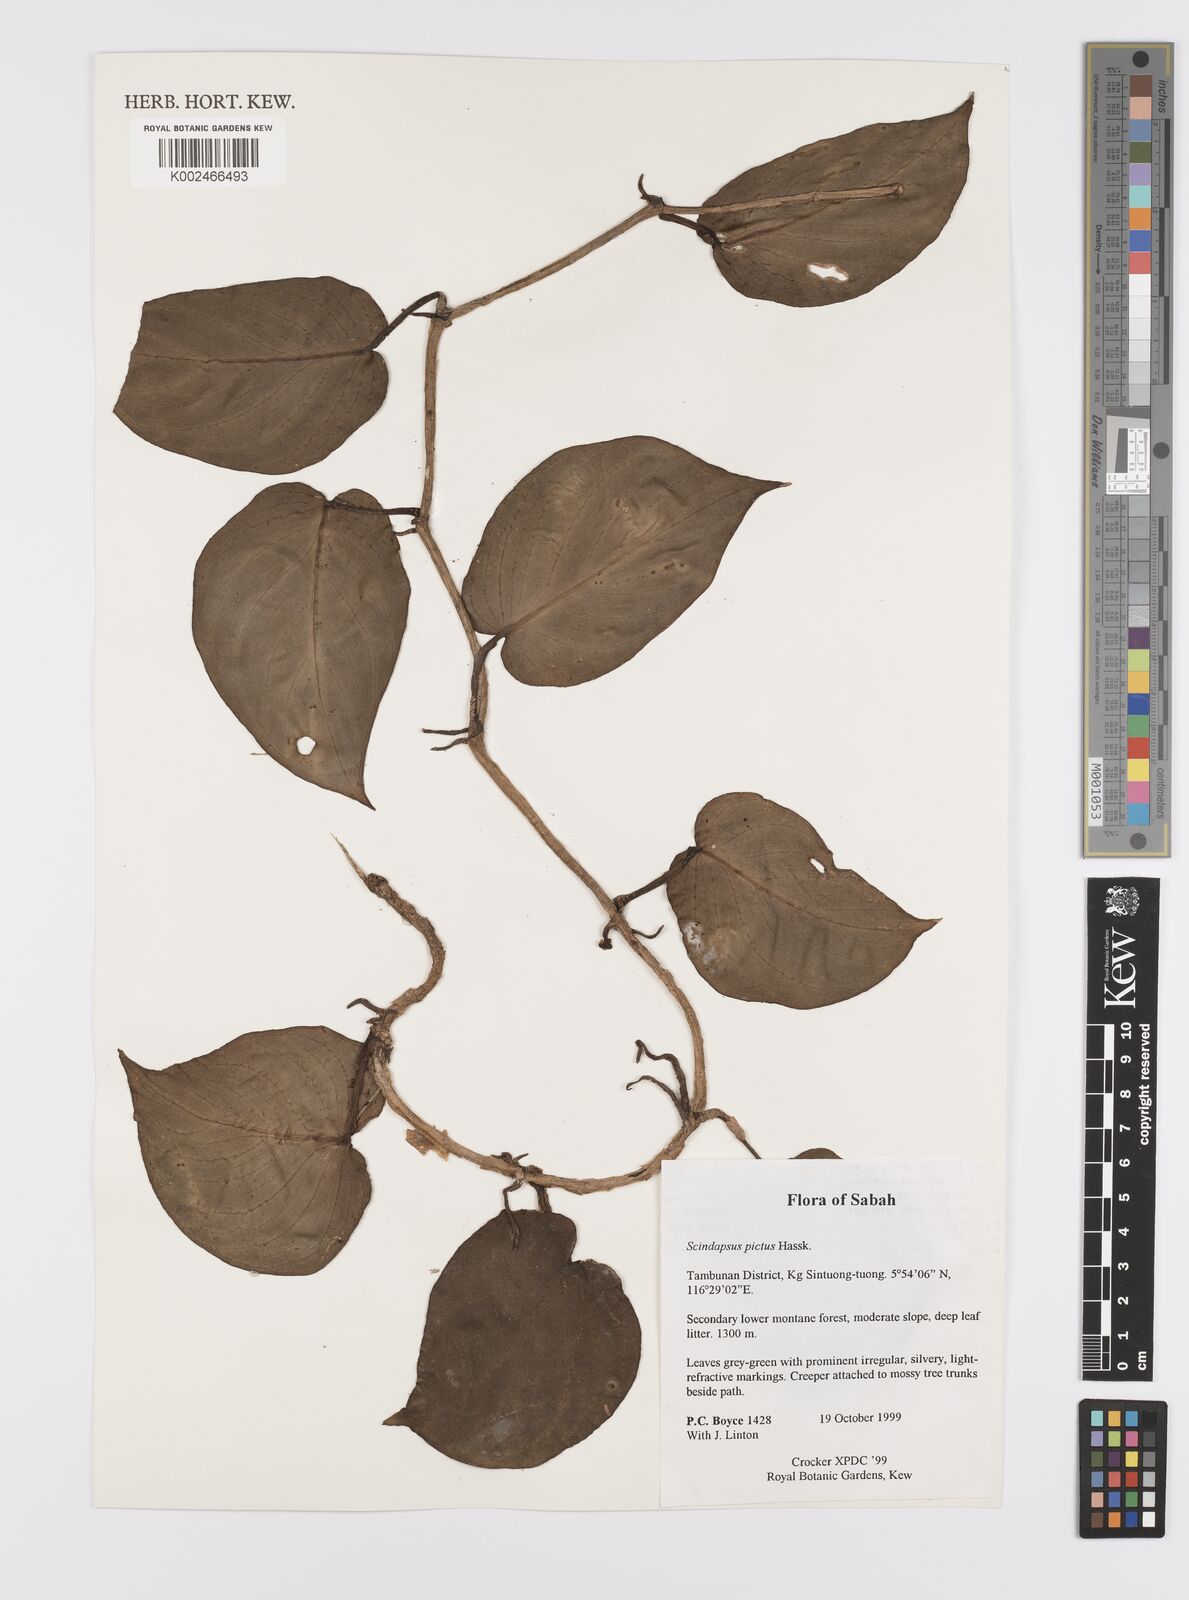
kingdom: Plantae
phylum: Tracheophyta
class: Liliopsida
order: Alismatales
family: Araceae
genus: Scindapsus
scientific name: Scindapsus pictus
